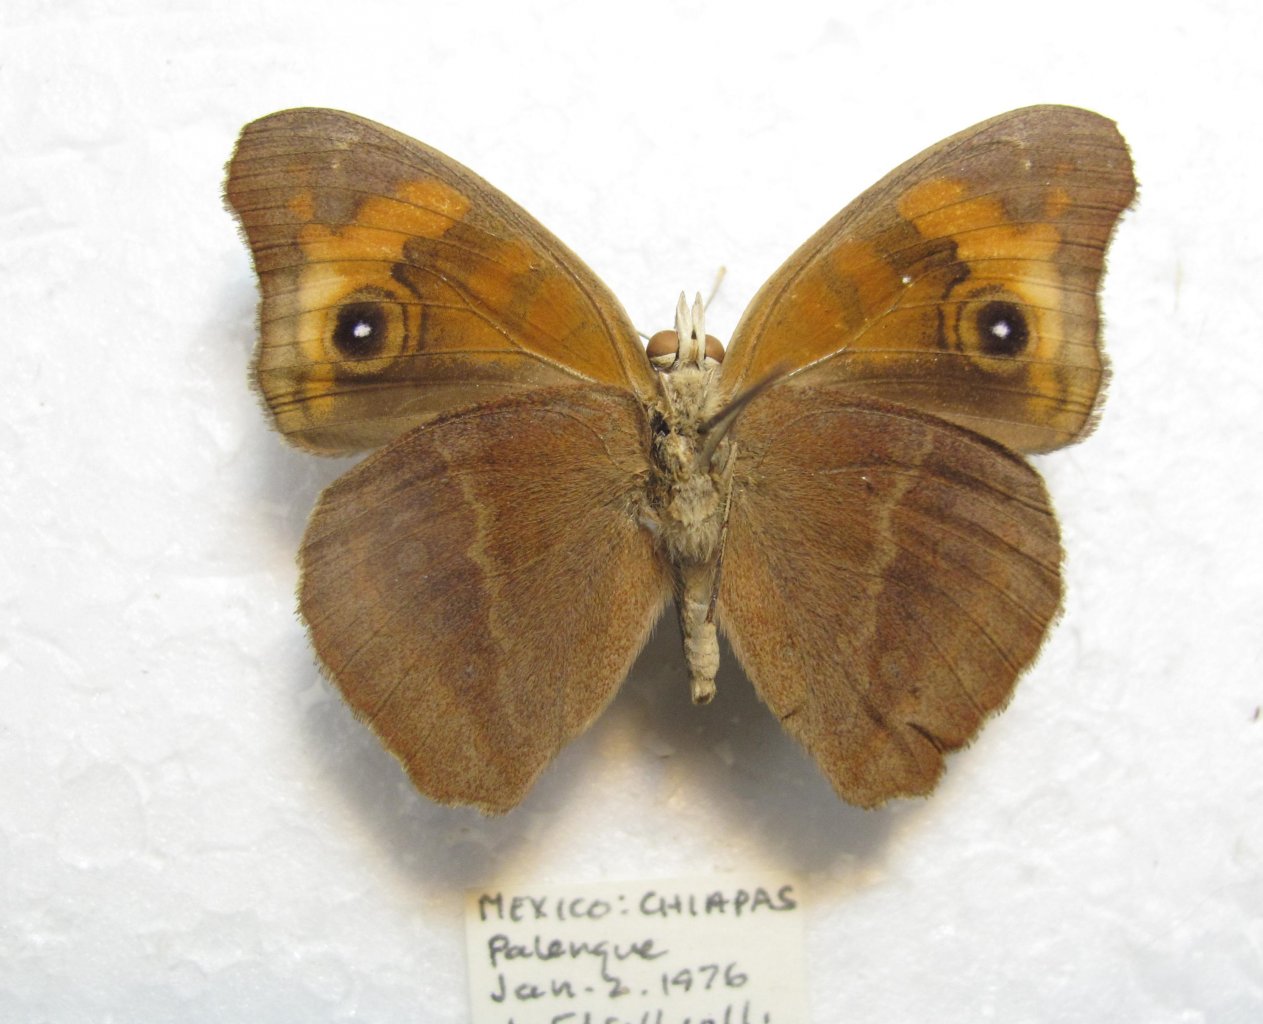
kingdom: Animalia
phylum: Arthropoda
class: Insecta
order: Lepidoptera
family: Nymphalidae
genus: Junonia
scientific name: Junonia evarete
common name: Mangrove Buckeye
